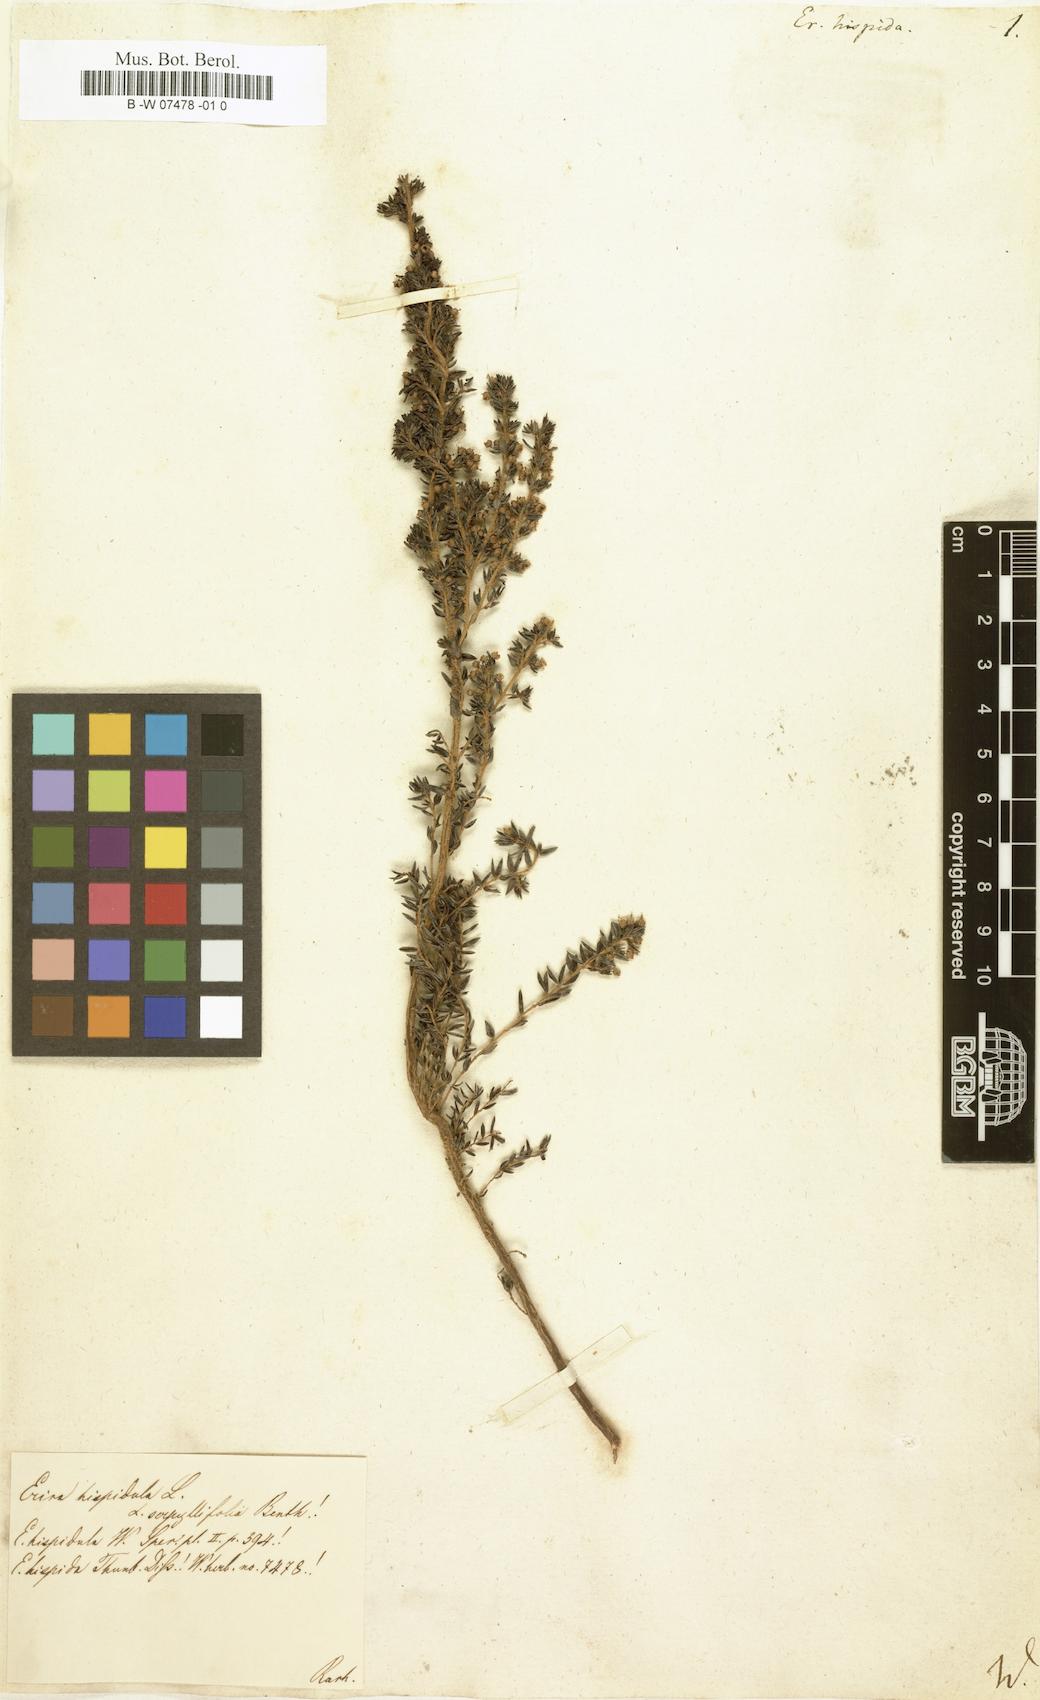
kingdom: Plantae
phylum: Tracheophyta
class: Magnoliopsida
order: Ericales
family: Ericaceae
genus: Erica
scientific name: Erica hispidula
